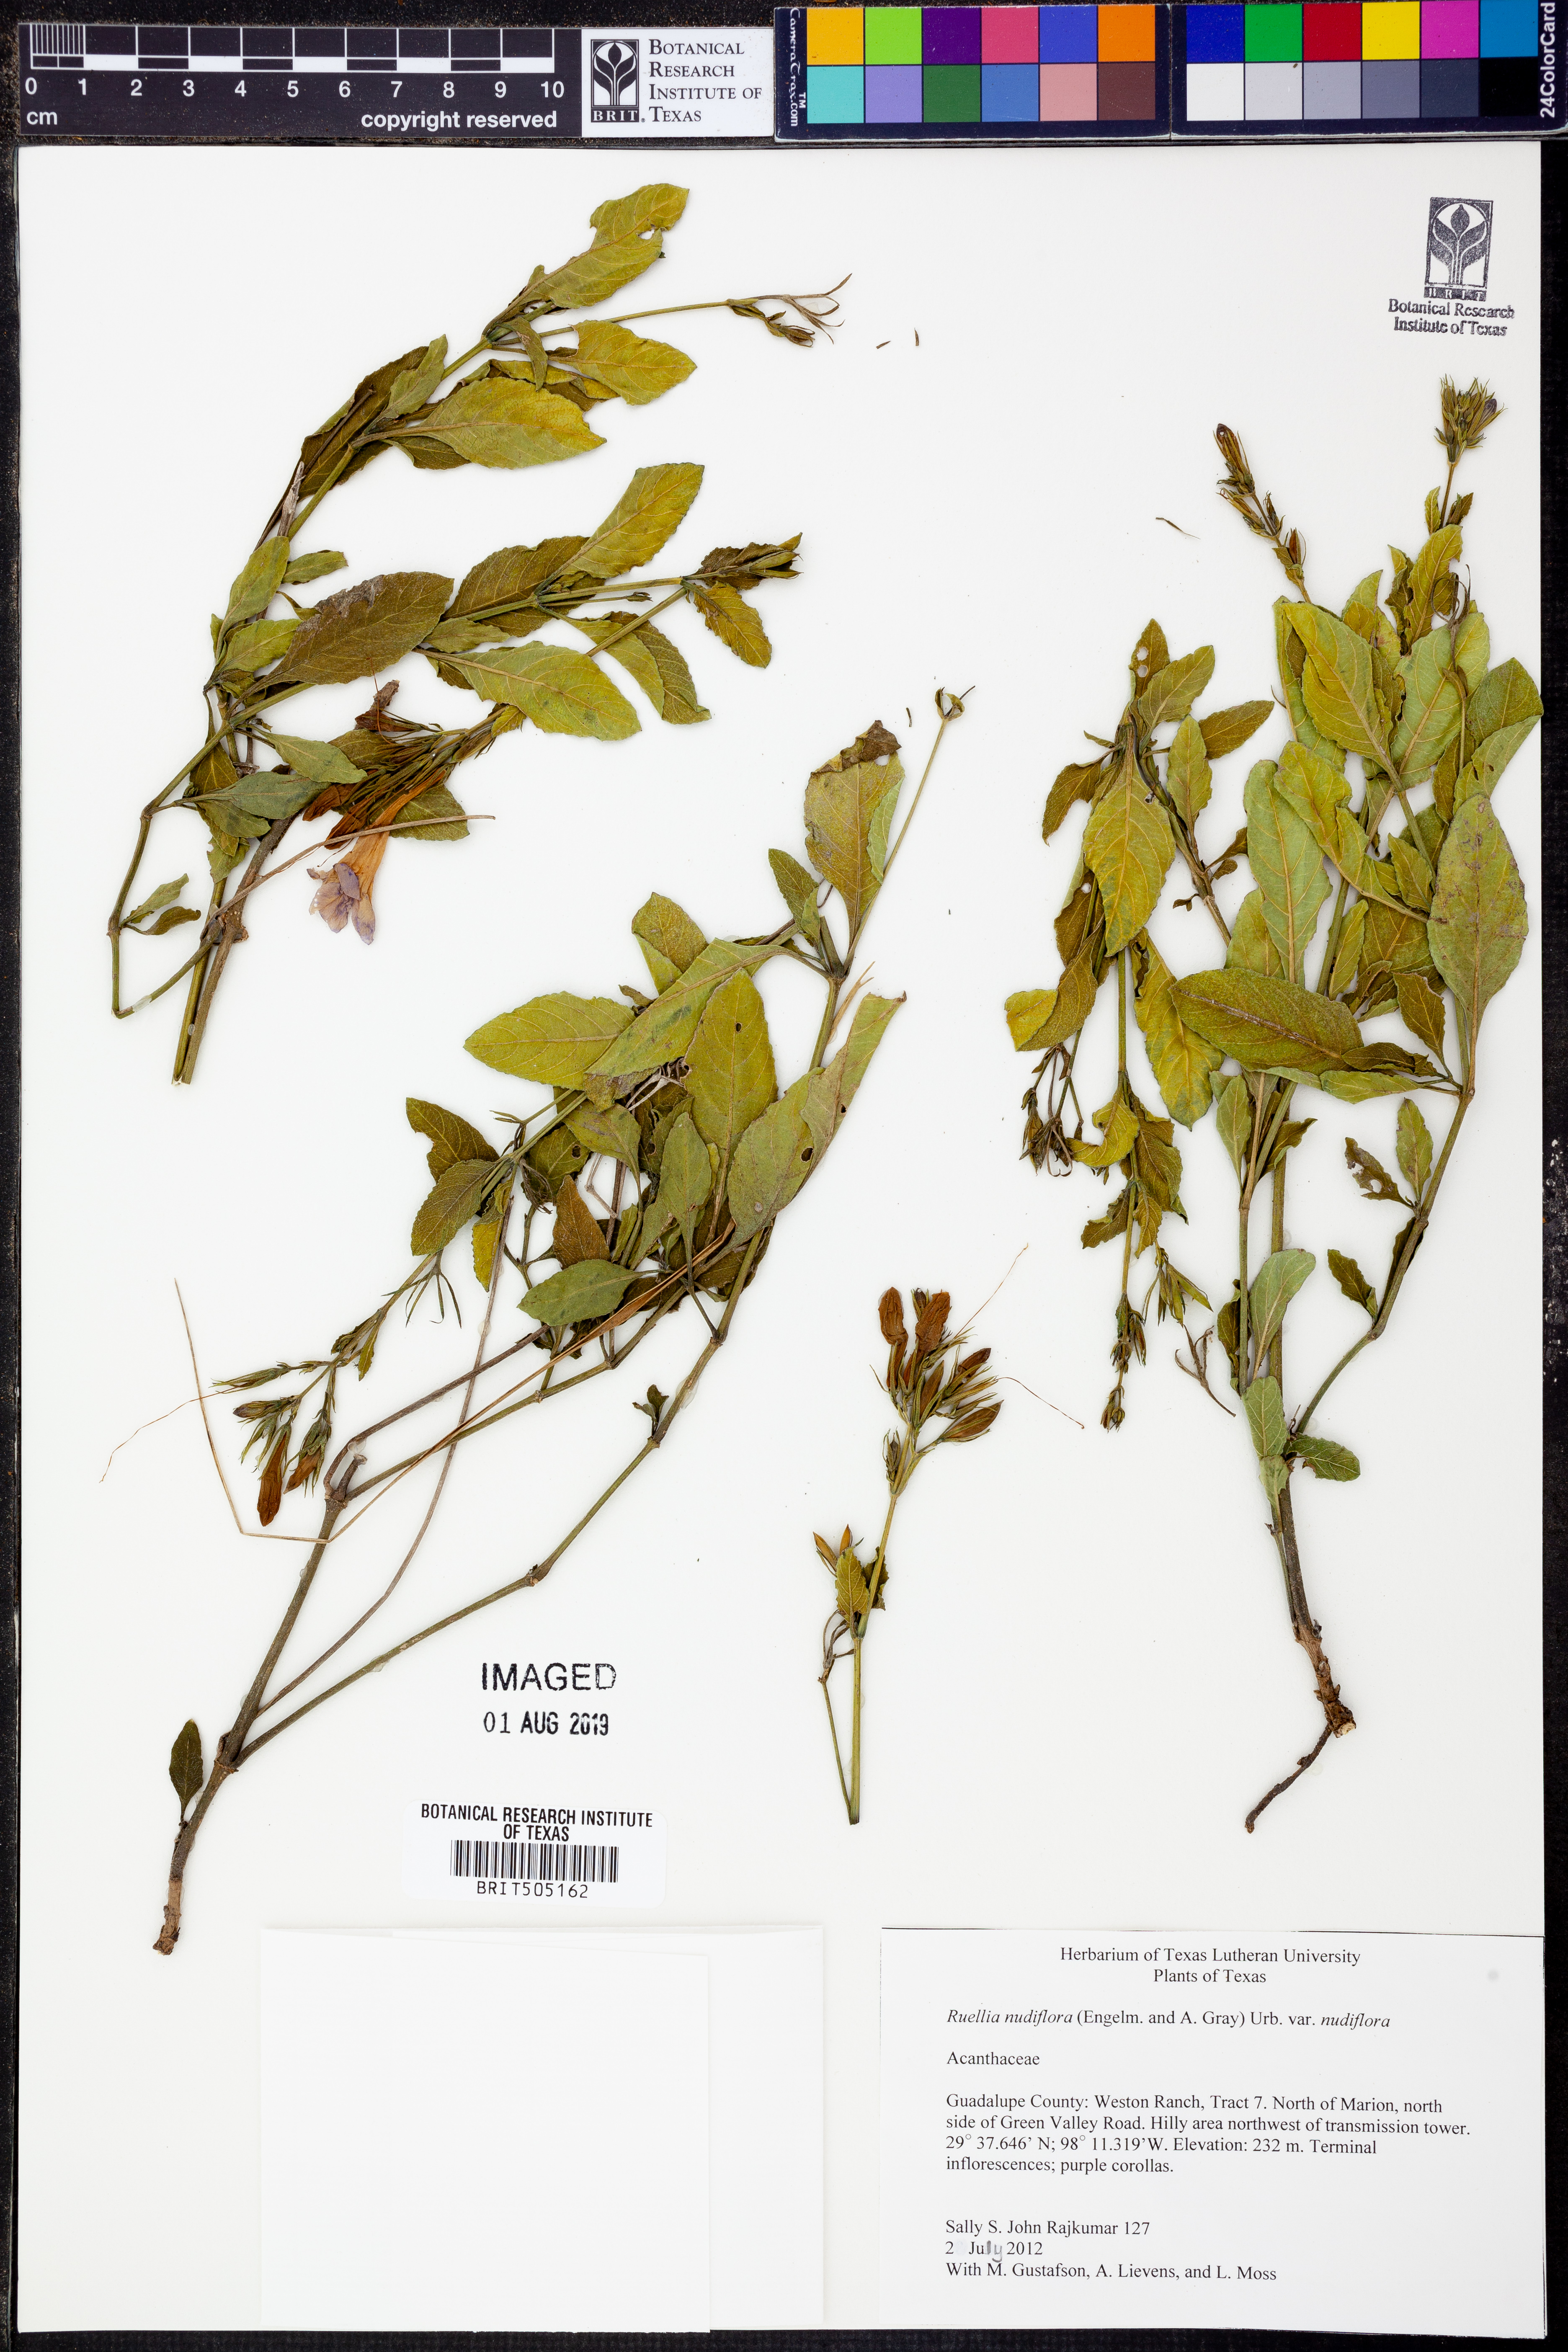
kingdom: Plantae
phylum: Tracheophyta
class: Magnoliopsida
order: Lamiales
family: Acanthaceae
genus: Ruellia
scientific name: Ruellia ciliatiflora
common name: Hairyflower wild petunia
